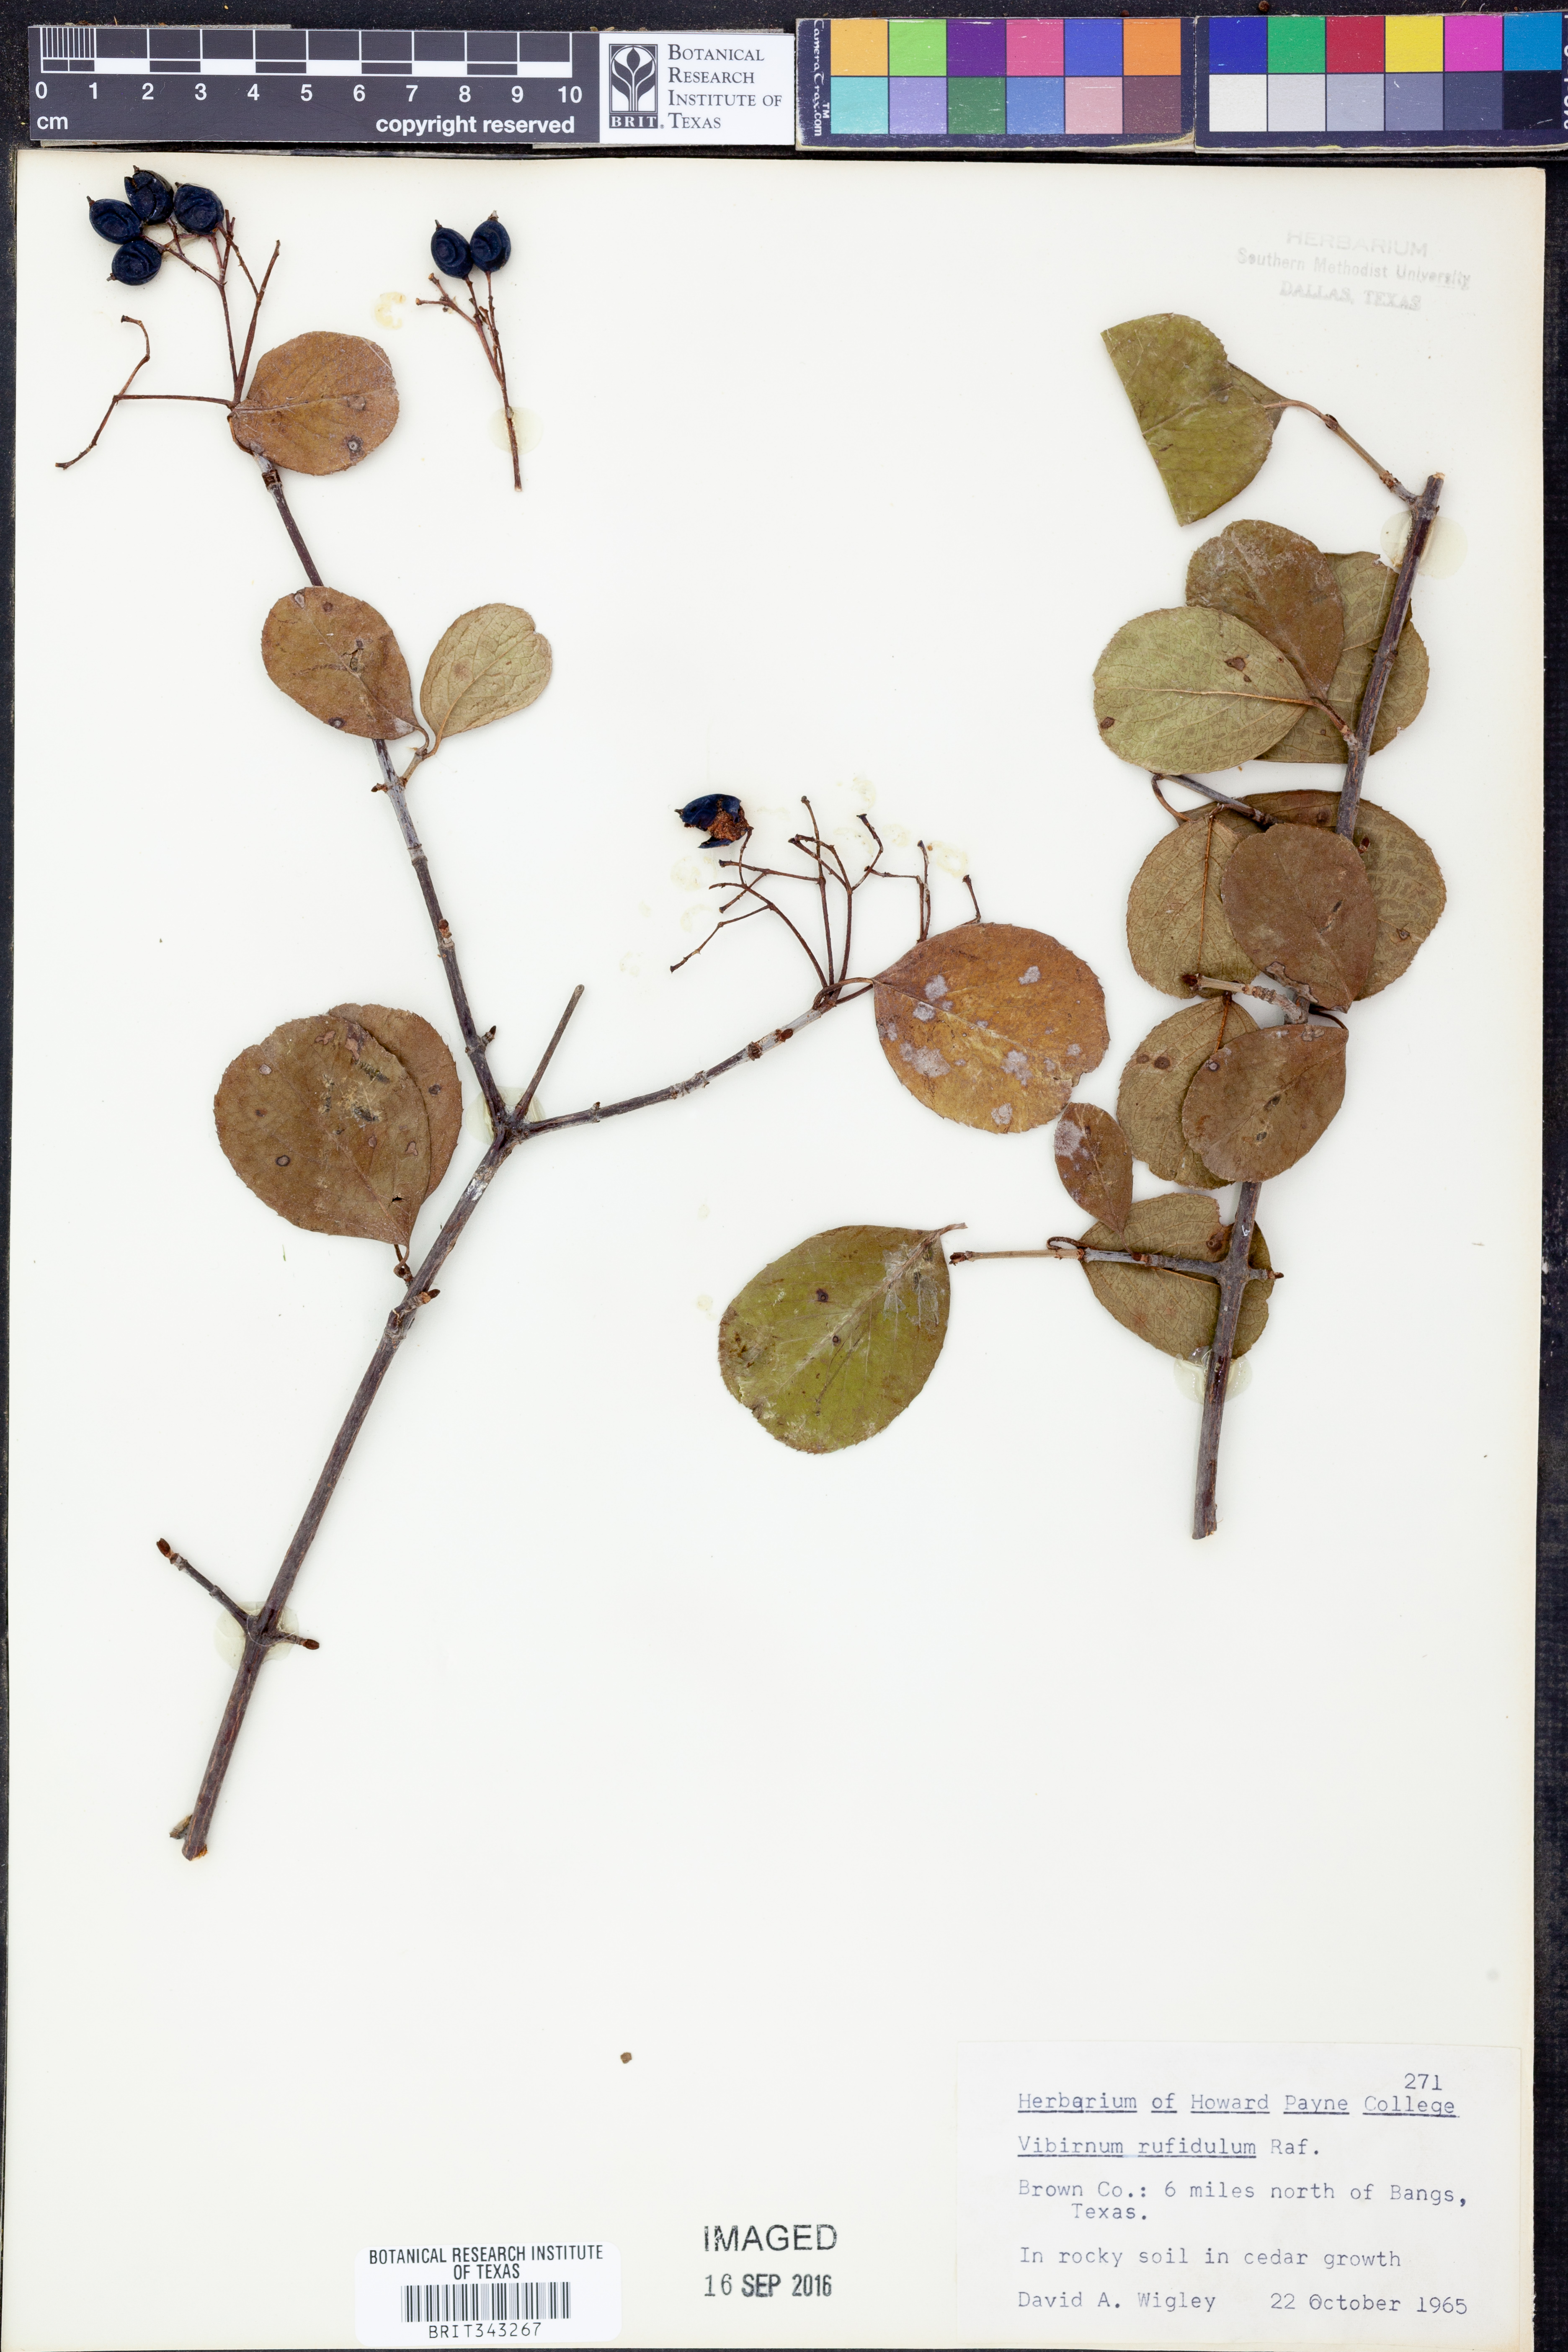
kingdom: Plantae
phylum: Tracheophyta
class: Magnoliopsida
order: Dipsacales
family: Viburnaceae
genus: Viburnum
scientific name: Viburnum rufidulum
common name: Blue haw
